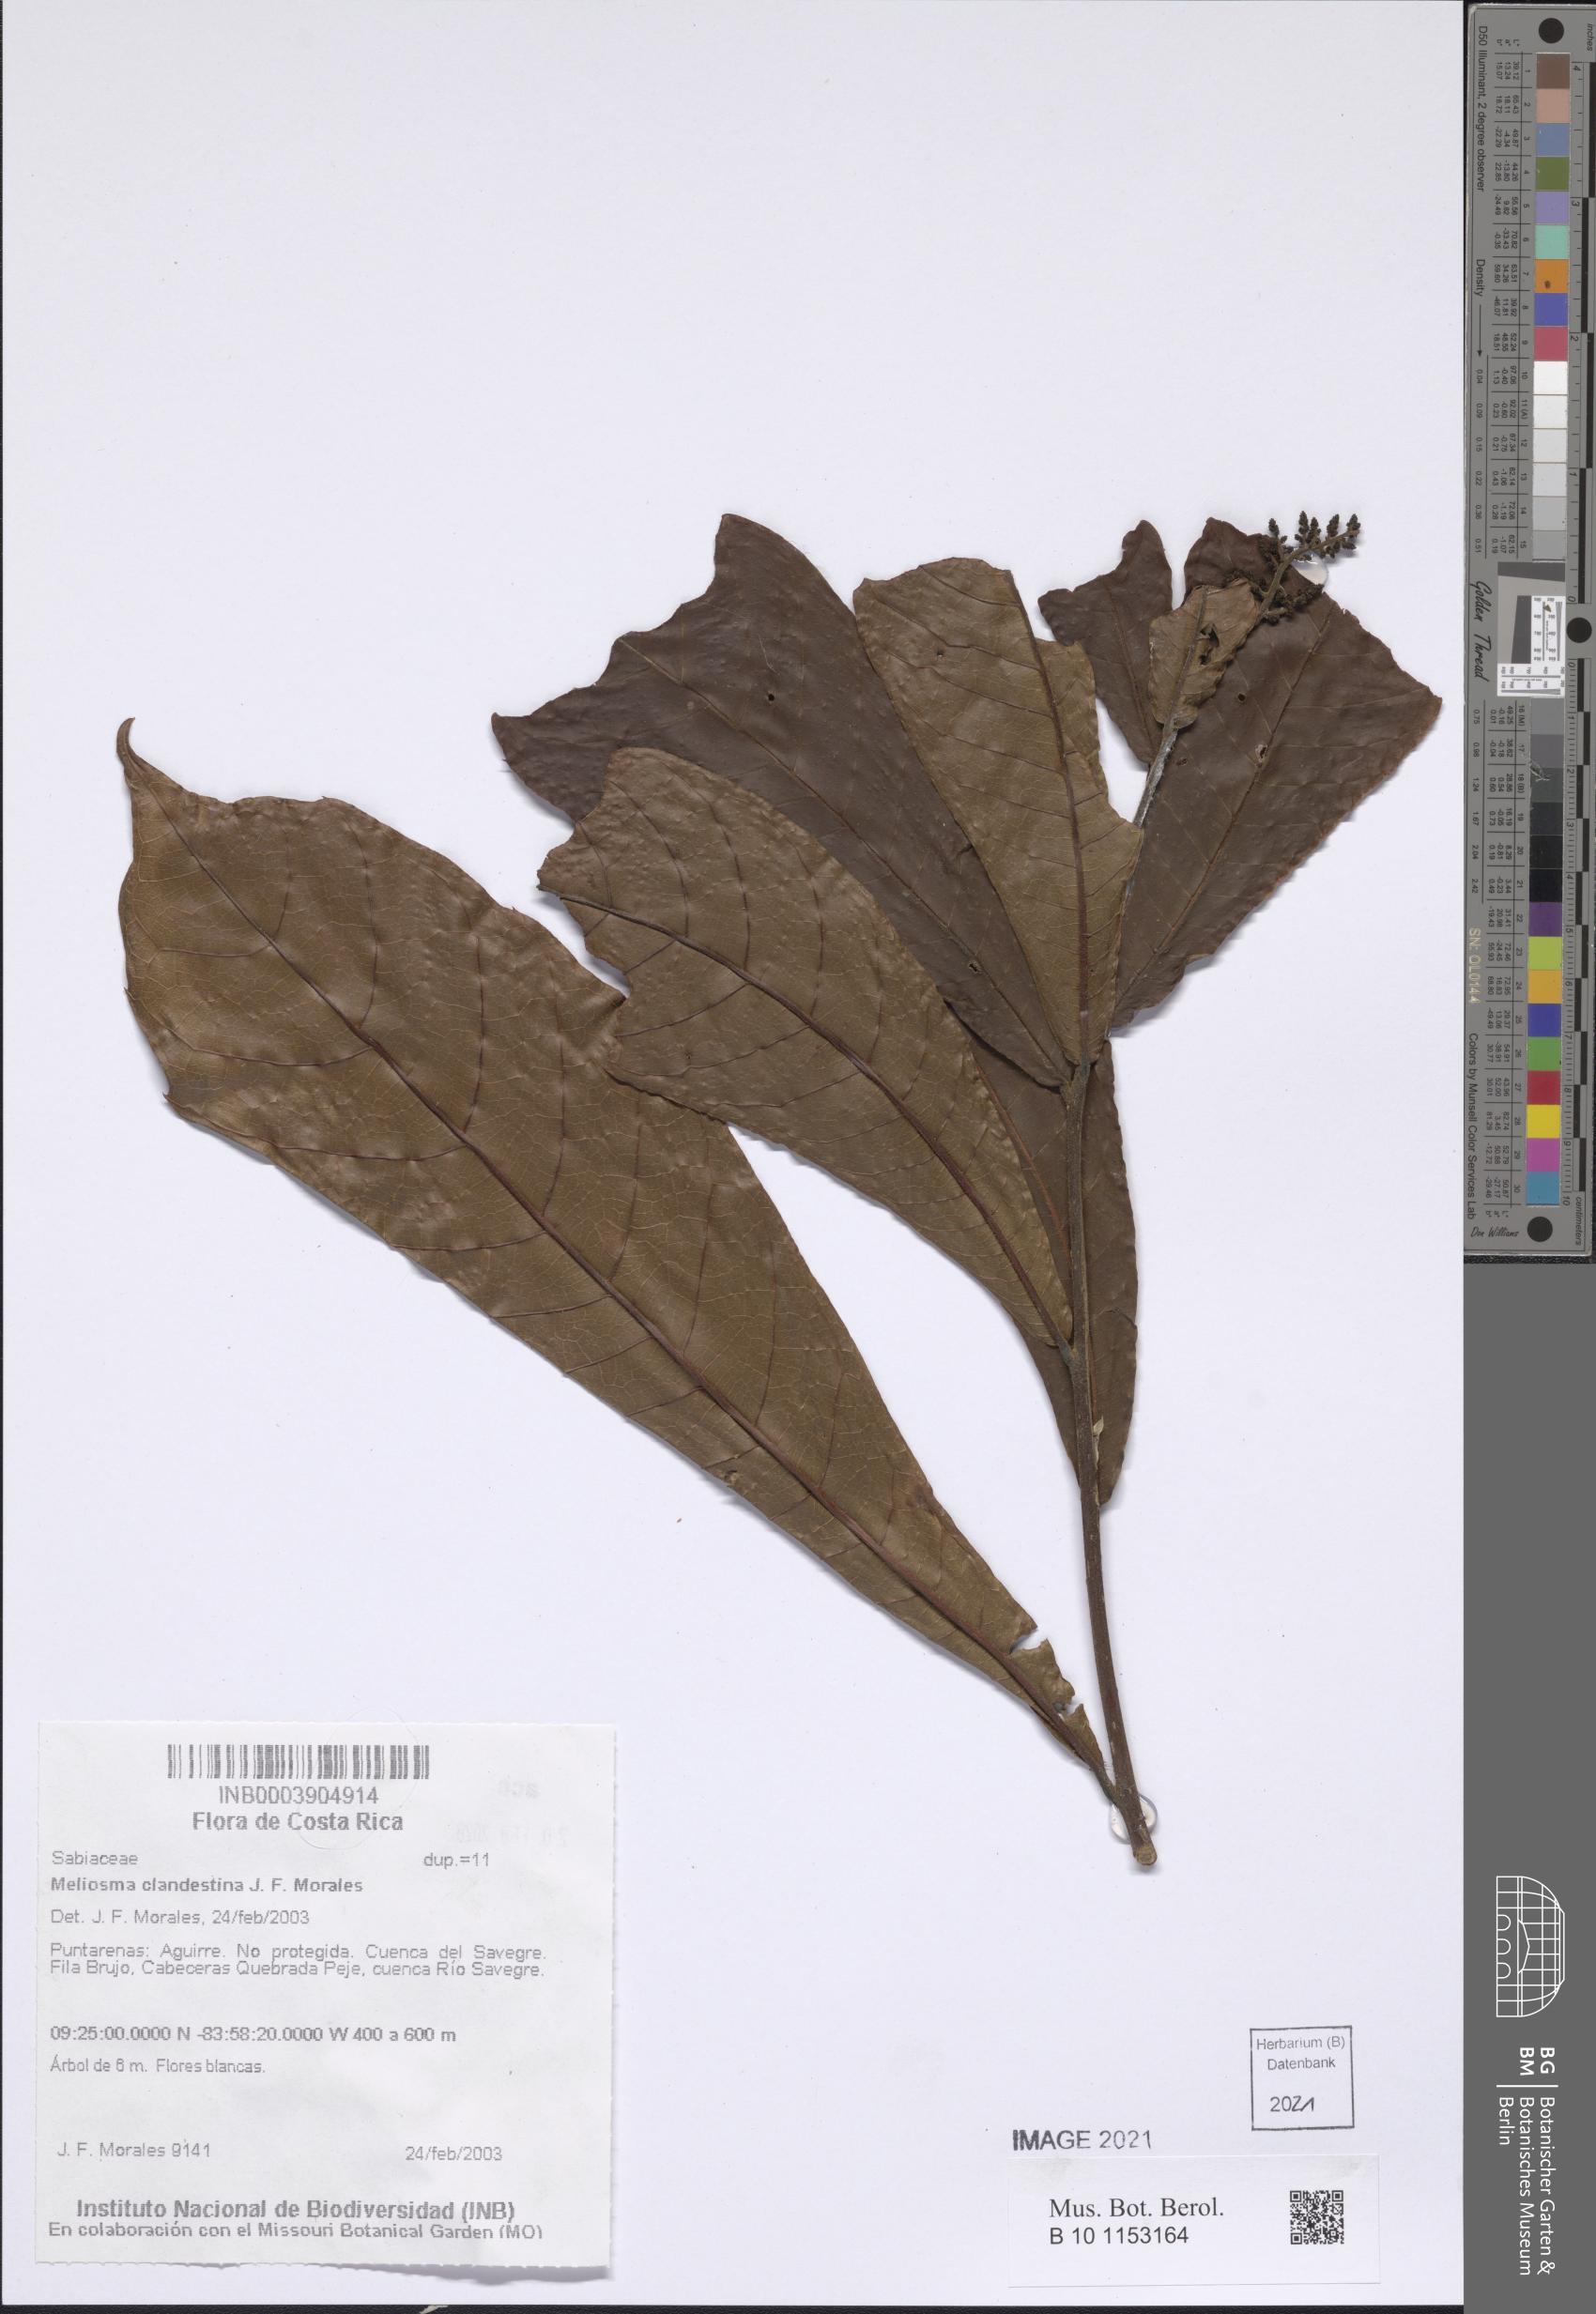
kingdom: Plantae
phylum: Tracheophyta
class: Magnoliopsida
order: Proteales
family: Sabiaceae
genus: Meliosma
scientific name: Meliosma clandestina
